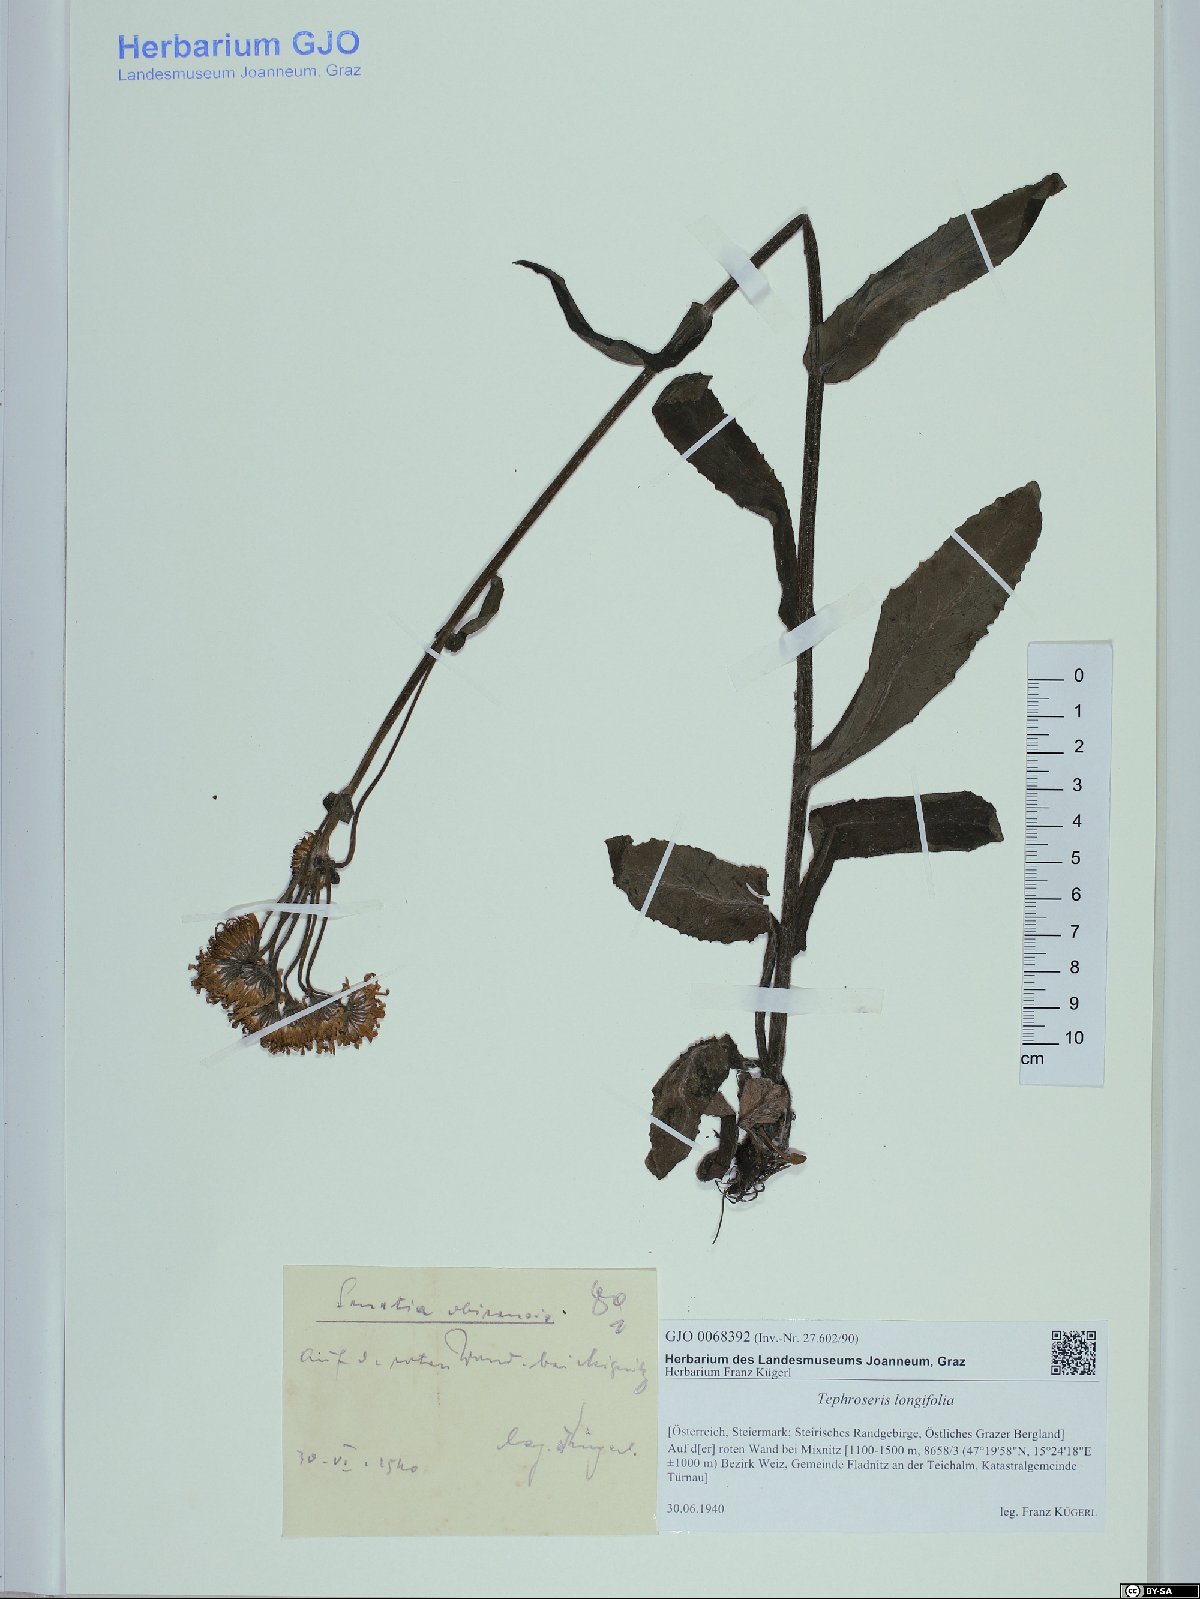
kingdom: Plantae
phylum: Tracheophyta
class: Magnoliopsida
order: Asterales
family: Asteraceae
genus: Tephroseris
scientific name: Tephroseris longifolia
